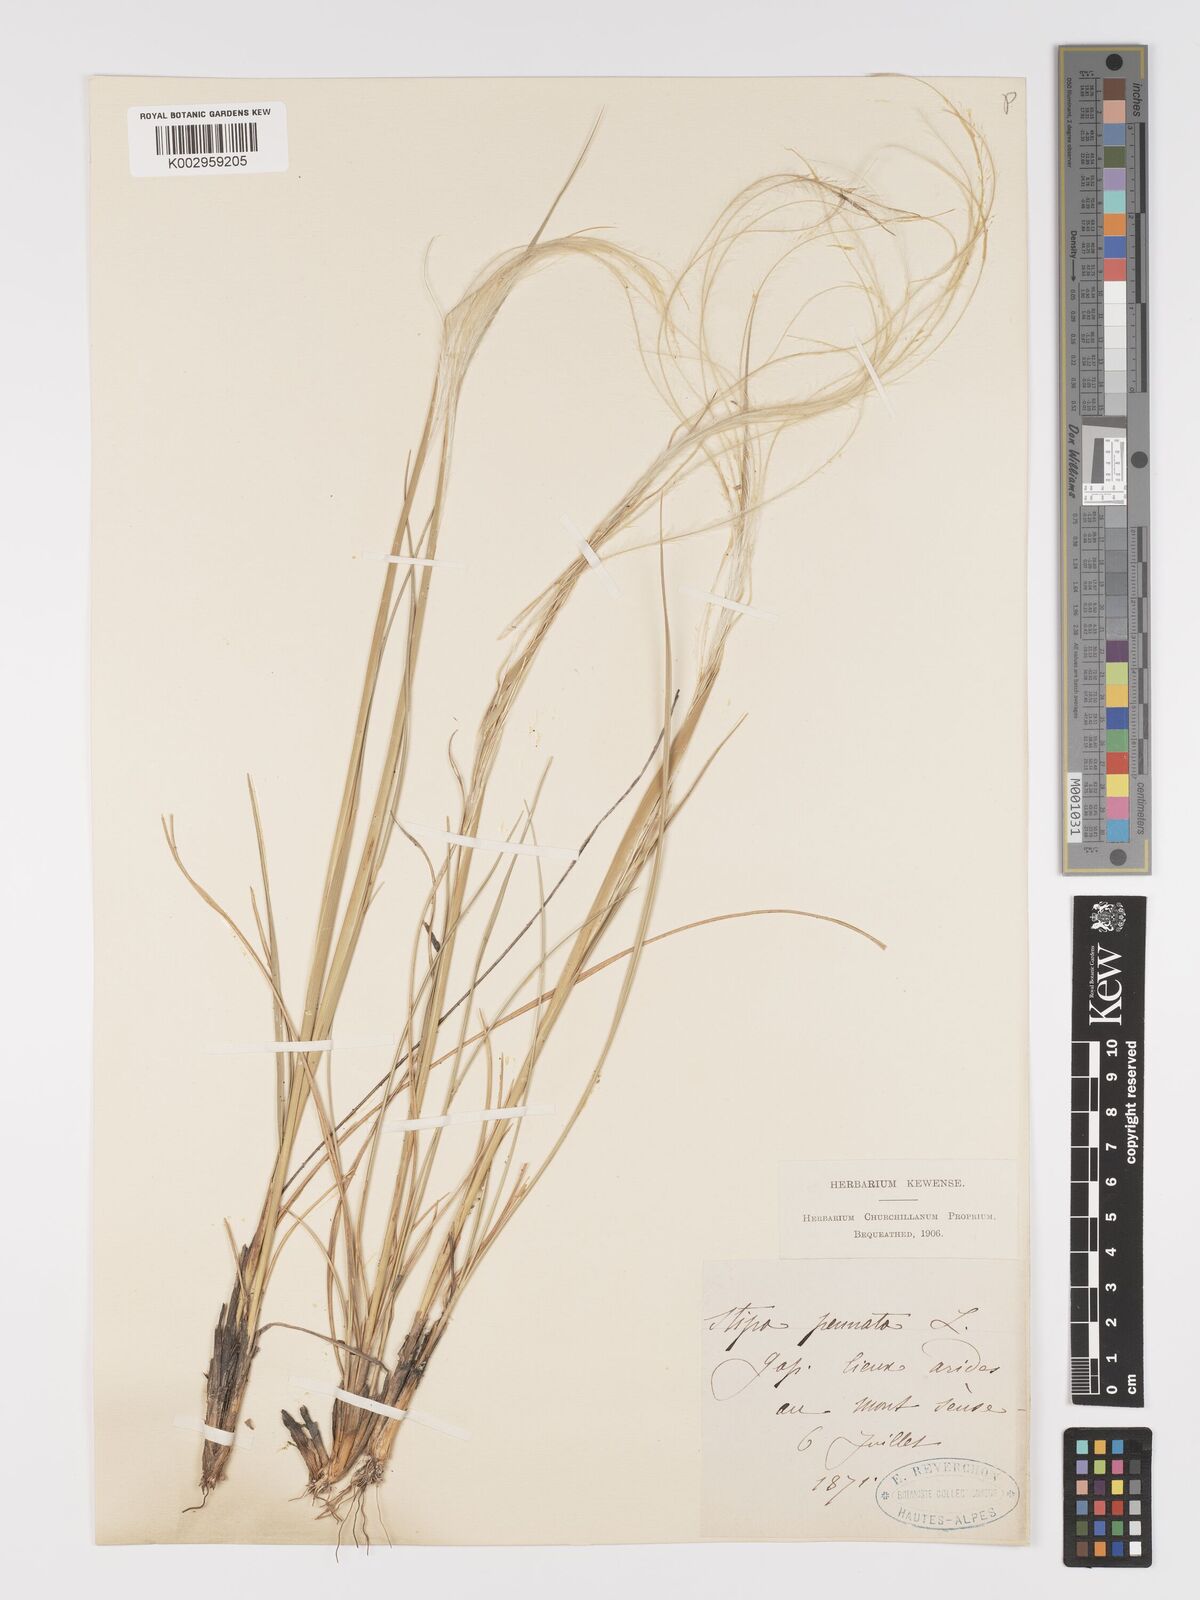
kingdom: Plantae
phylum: Tracheophyta
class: Liliopsida
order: Poales
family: Poaceae
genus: Stipa
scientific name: Stipa pennata
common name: European feather grass
